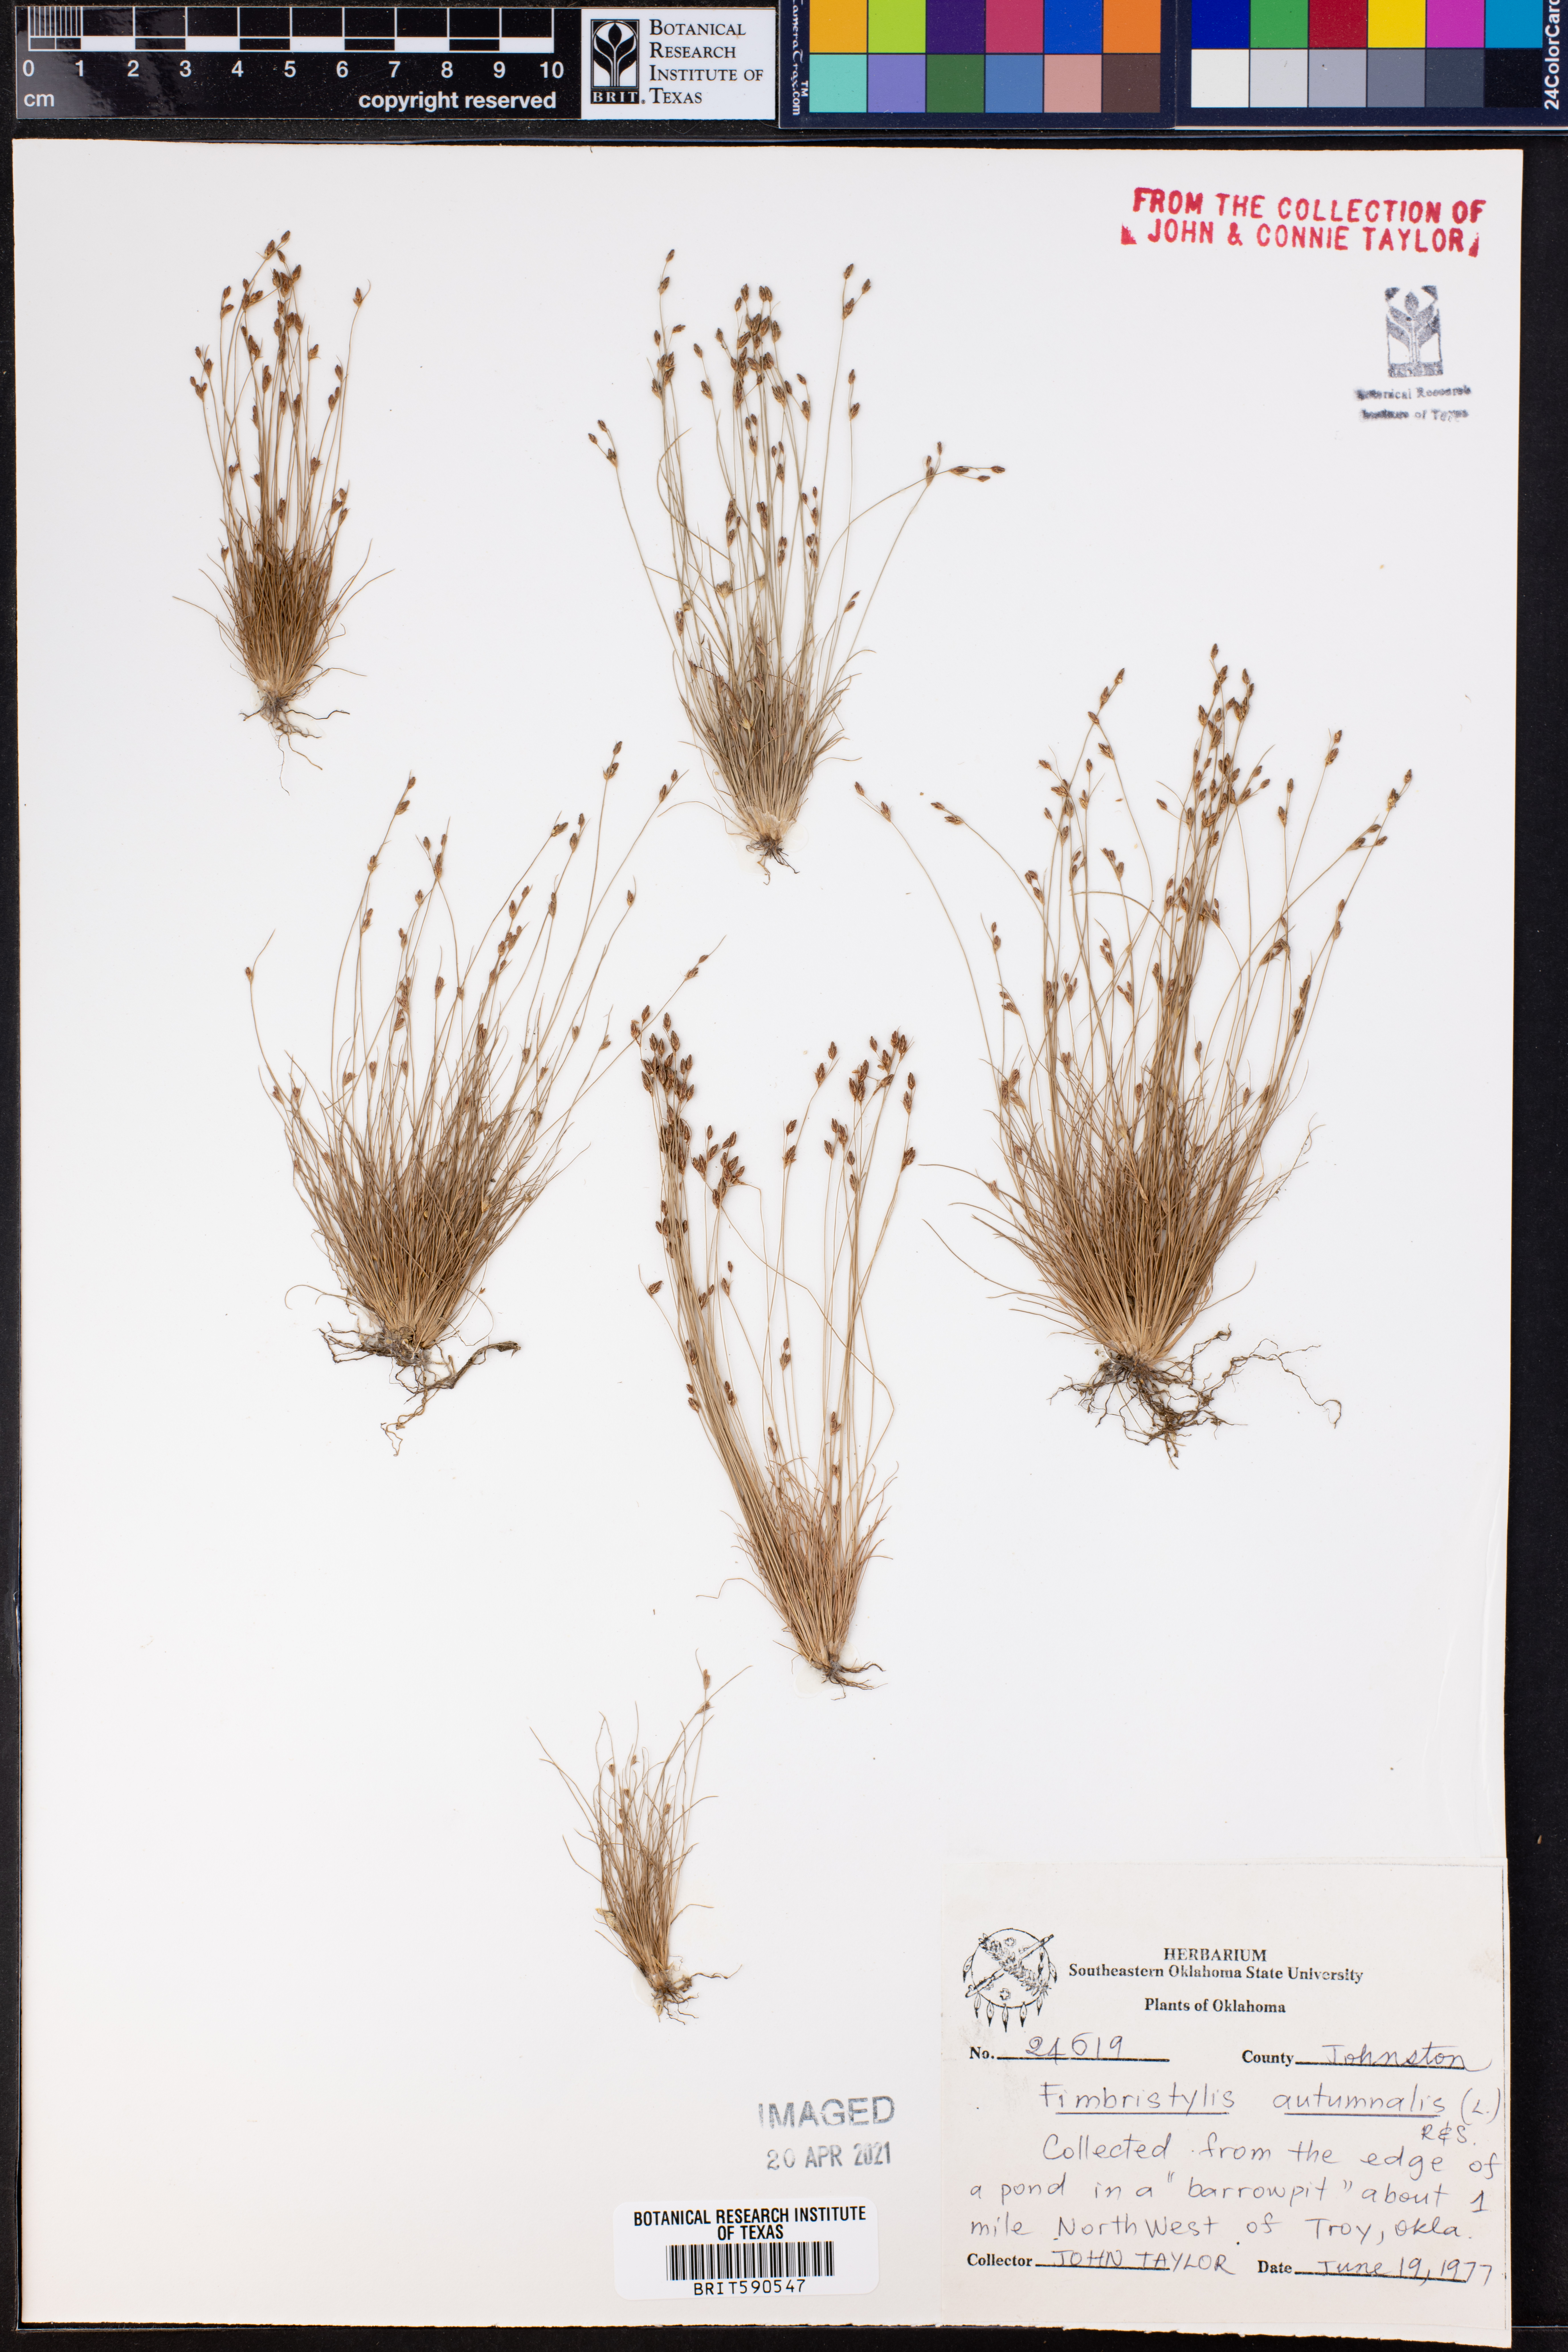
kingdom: Plantae
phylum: Tracheophyta
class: Liliopsida
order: Poales
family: Cyperaceae
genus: Fimbristylis
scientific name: Fimbristylis autumnalis
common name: Slender fimbristylis
